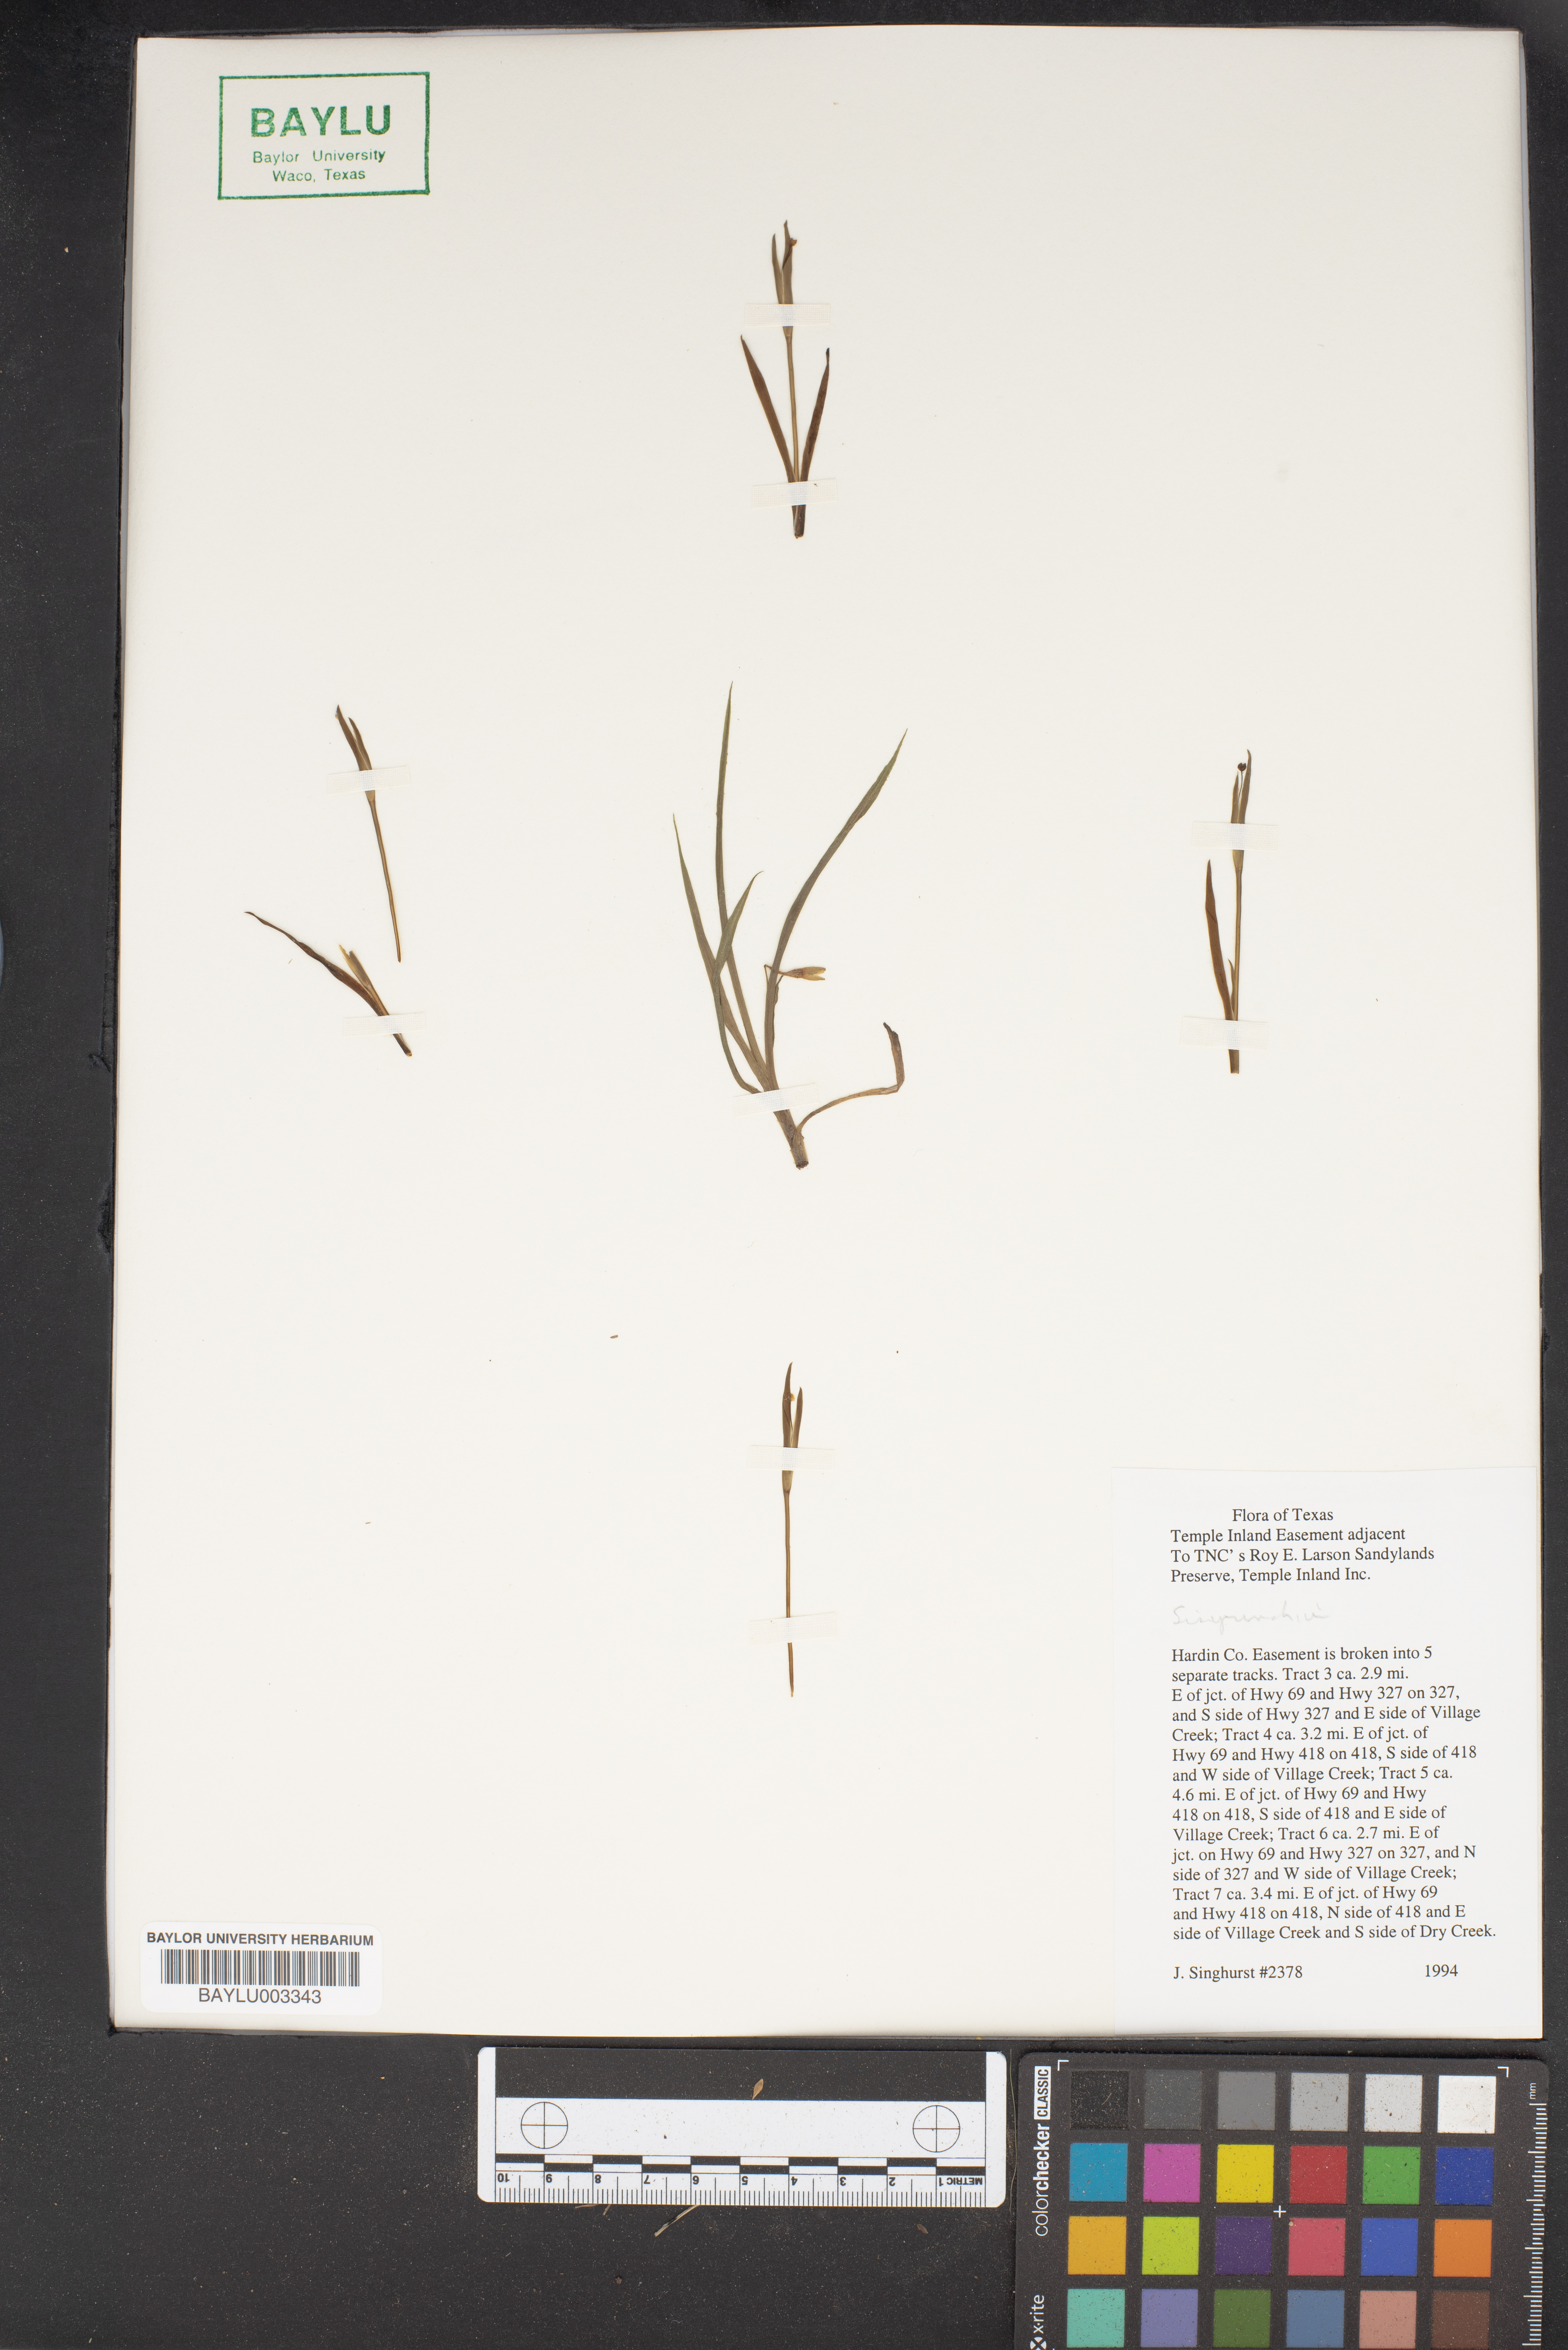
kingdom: Plantae
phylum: Tracheophyta
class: Liliopsida
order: Asparagales
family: Iridaceae
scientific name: Iridaceae
